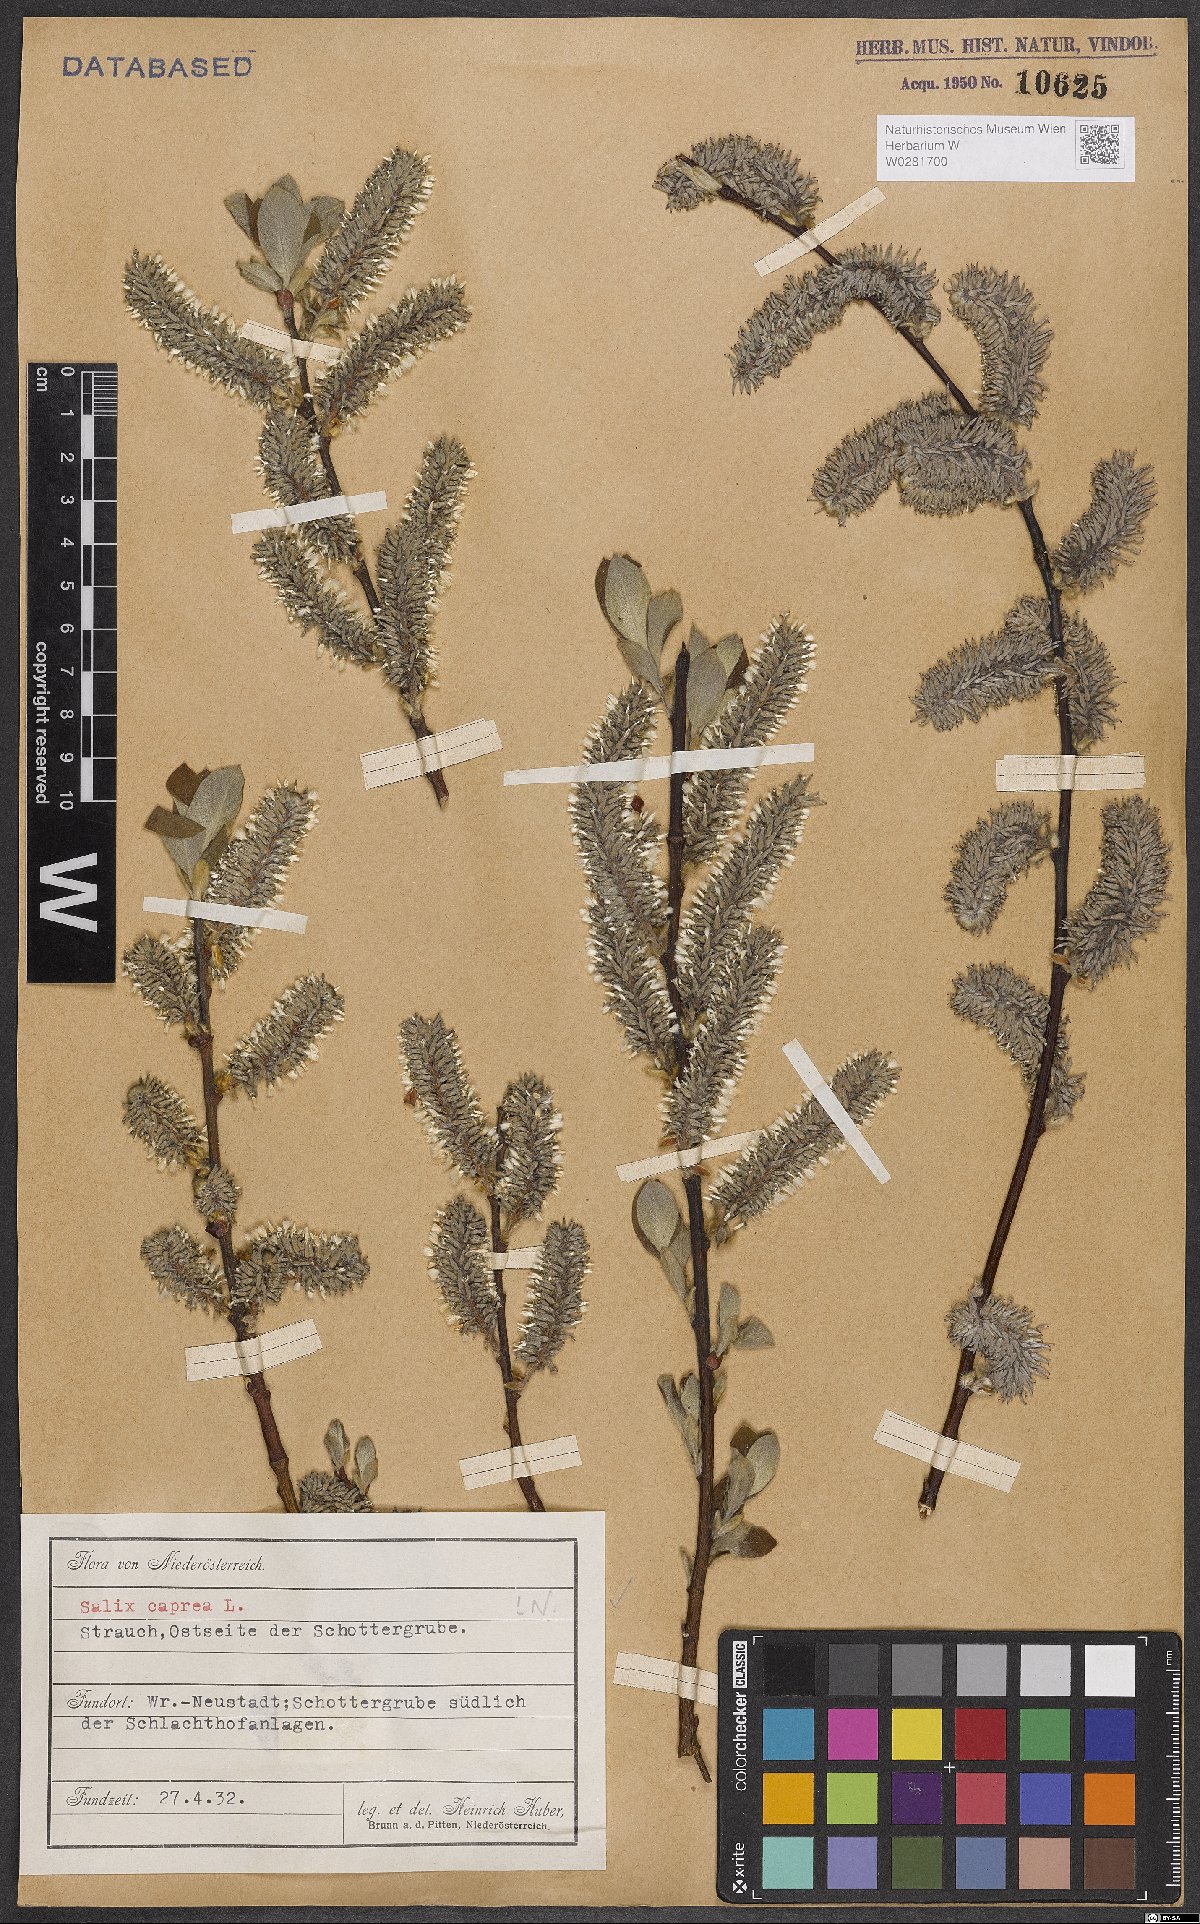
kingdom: Plantae
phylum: Tracheophyta
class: Magnoliopsida
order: Malpighiales
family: Salicaceae
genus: Salix
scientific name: Salix caprea
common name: Goat willow
